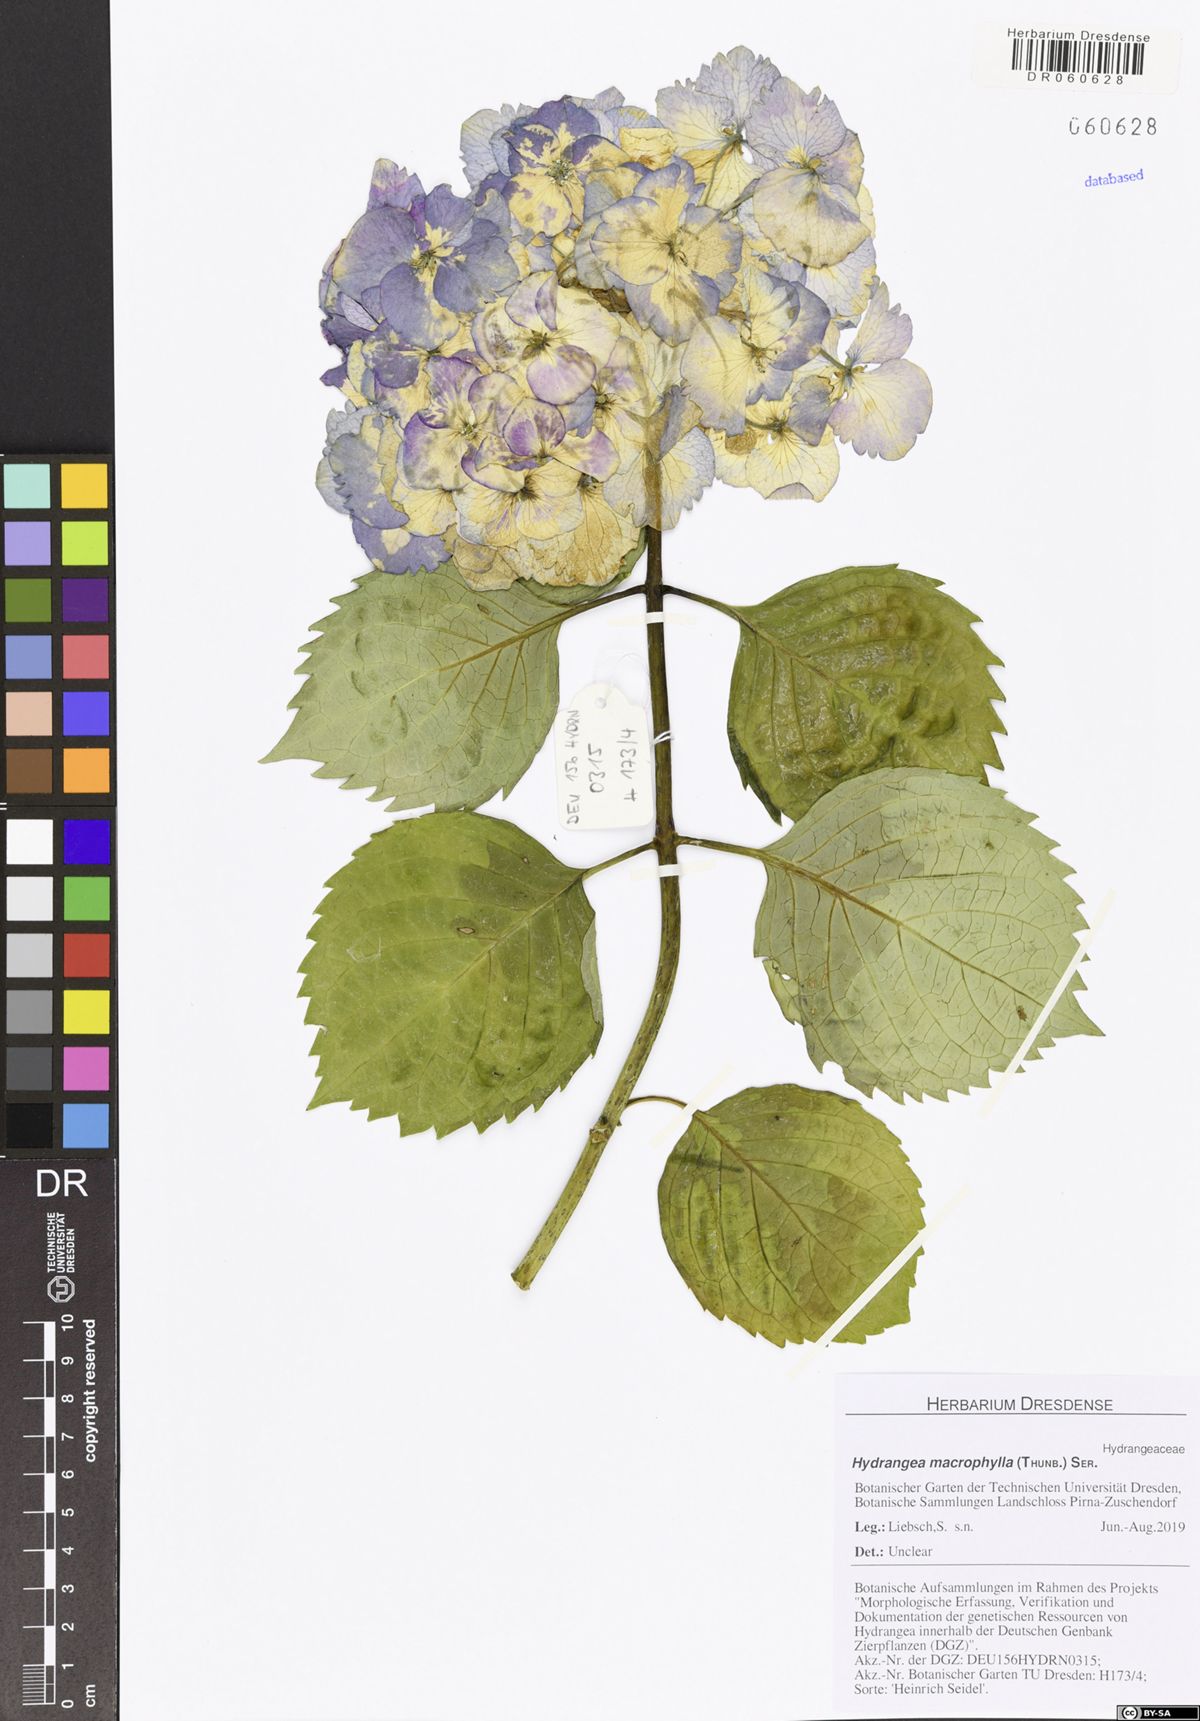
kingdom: Plantae
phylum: Tracheophyta
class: Magnoliopsida
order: Cornales
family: Hydrangeaceae
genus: Hydrangea
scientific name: Hydrangea macrophylla
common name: Hydrangea
